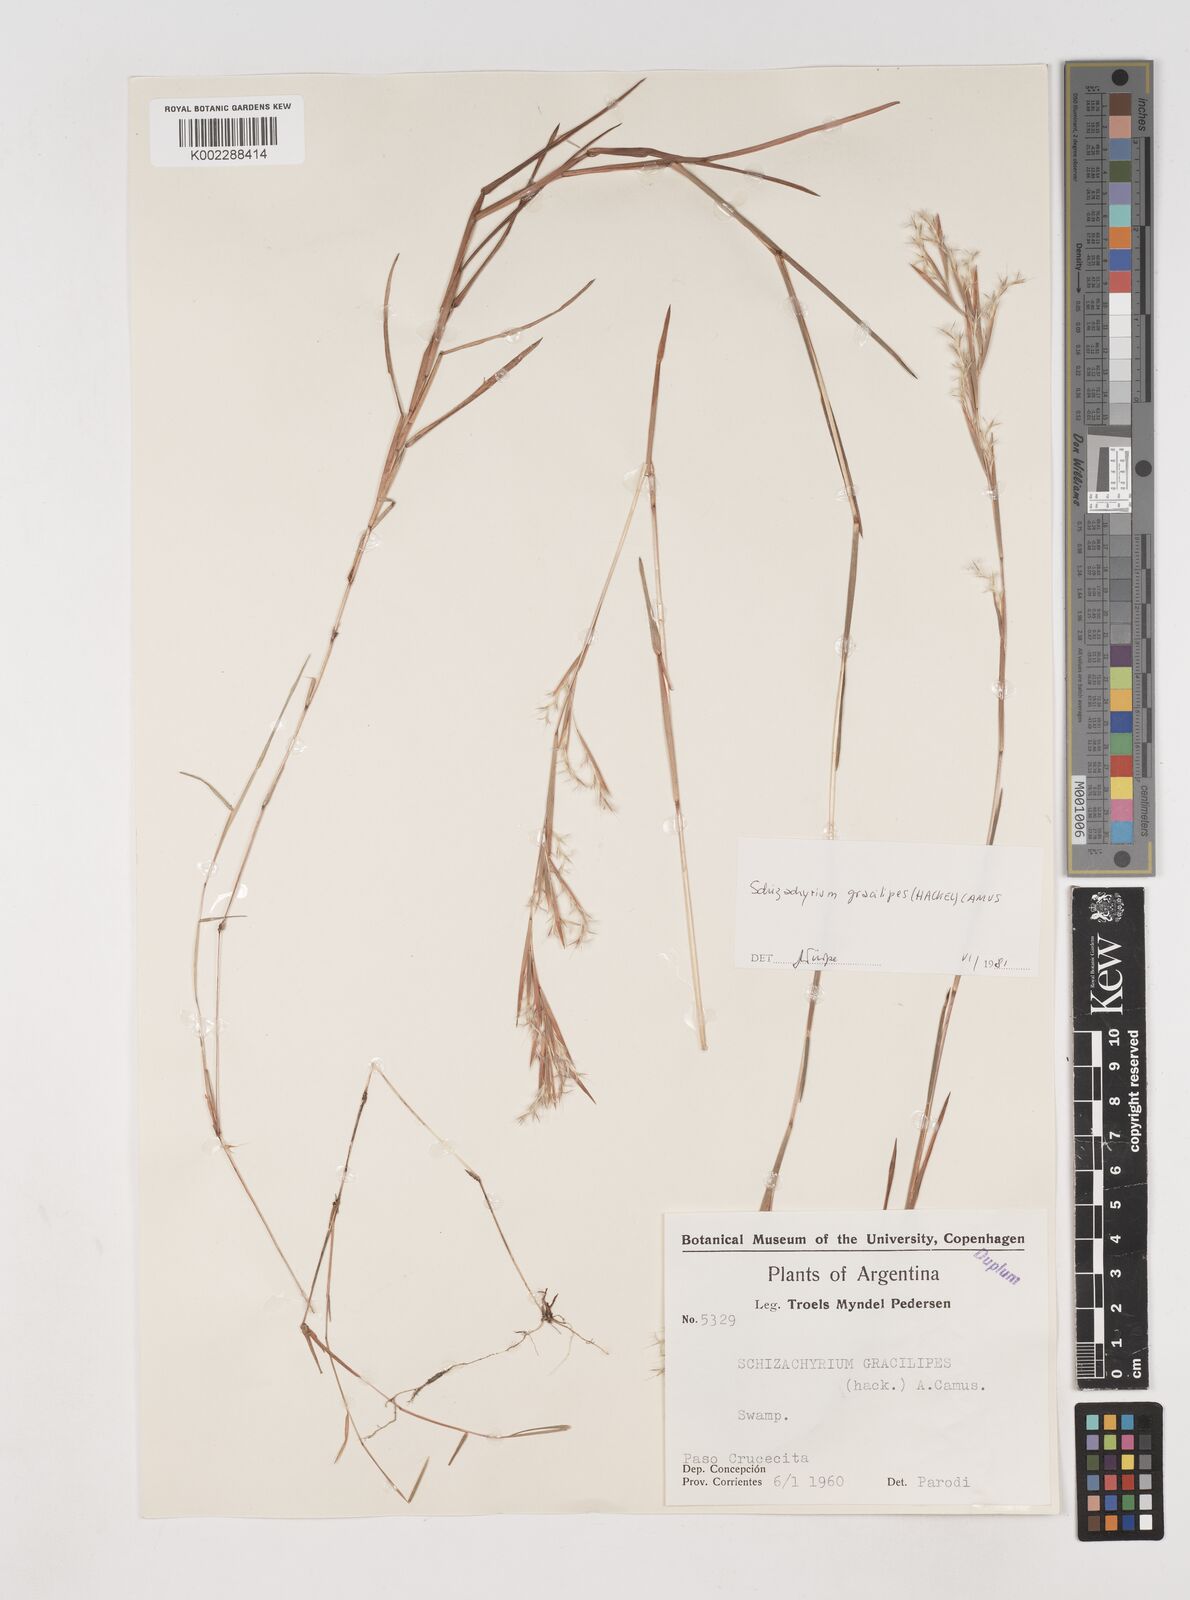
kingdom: Plantae
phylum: Tracheophyta
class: Liliopsida
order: Poales
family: Poaceae
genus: Schizachyrium
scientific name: Schizachyrium gracilipes
